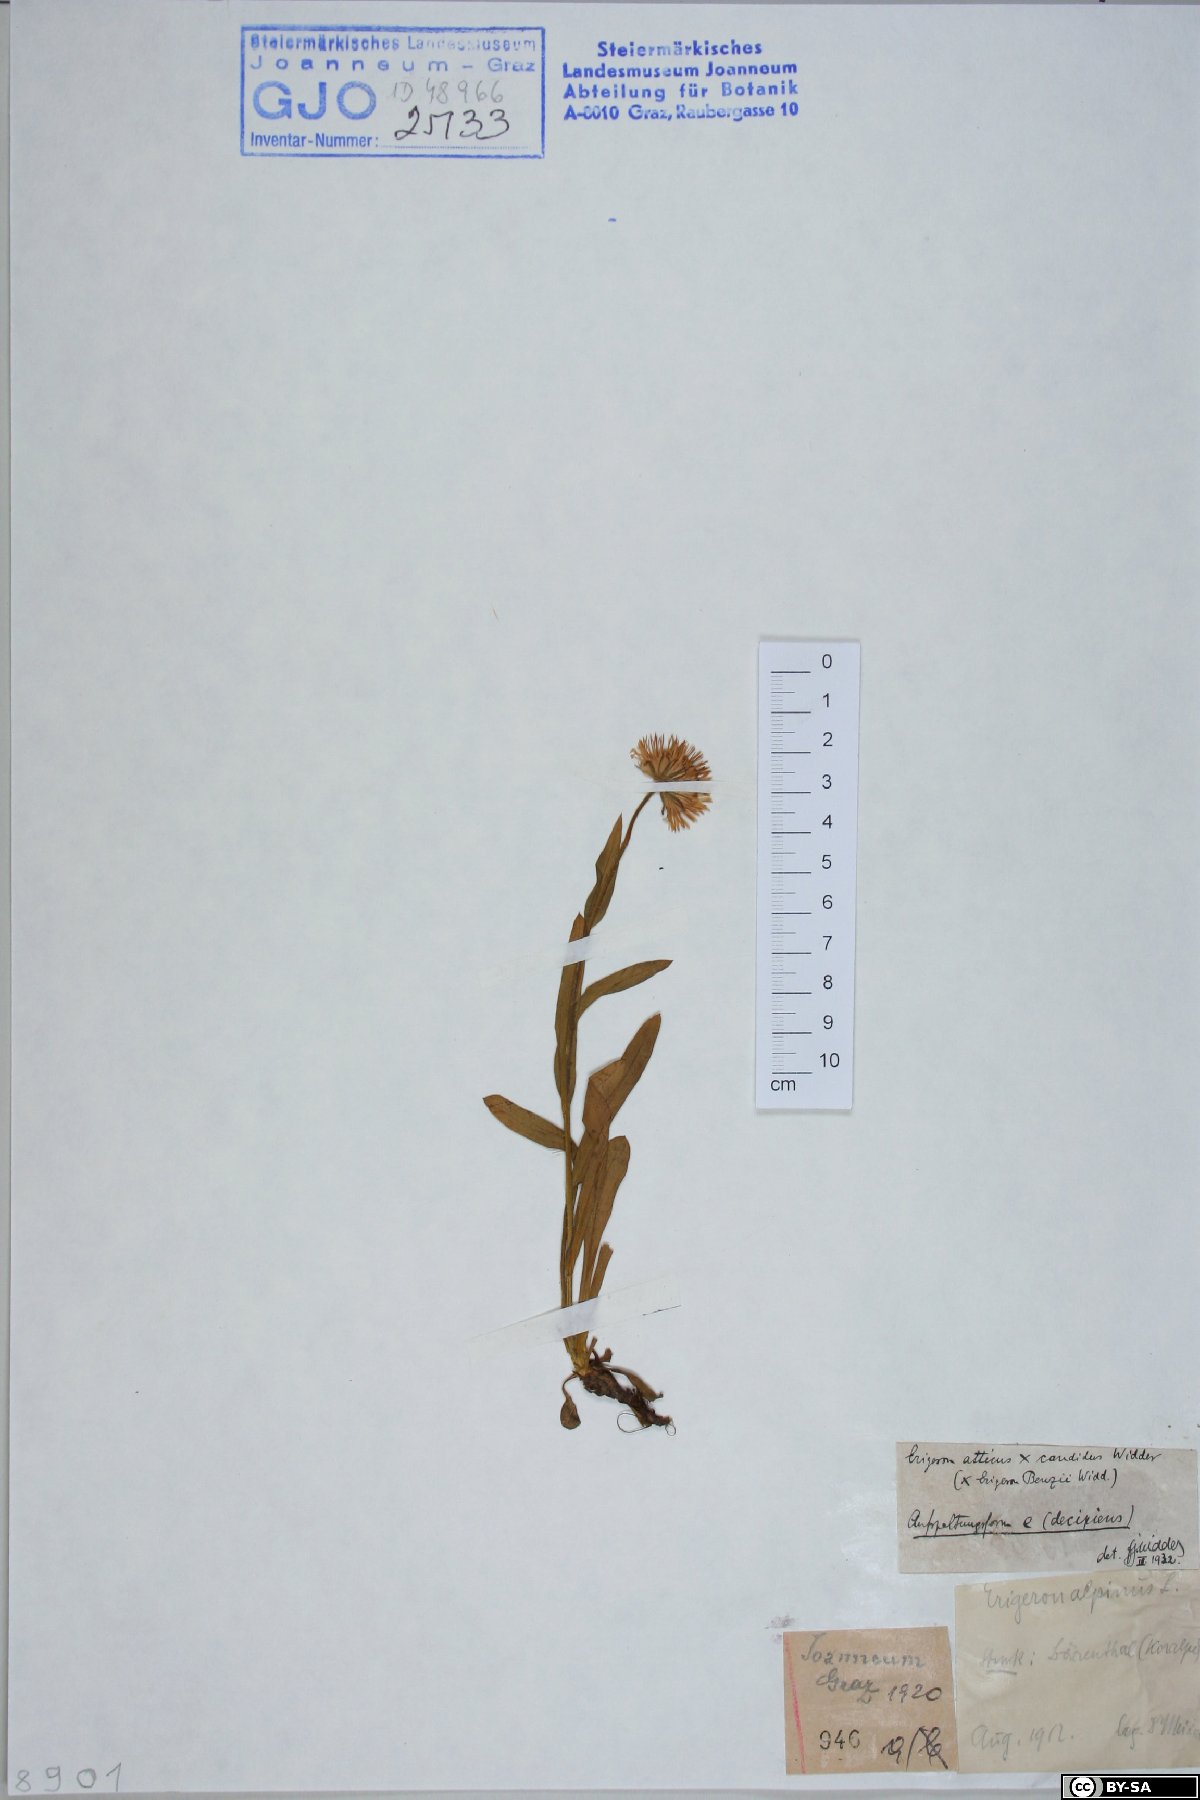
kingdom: Plantae
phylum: Tracheophyta
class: Magnoliopsida
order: Asterales
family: Asteraceae
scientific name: Asteraceae
